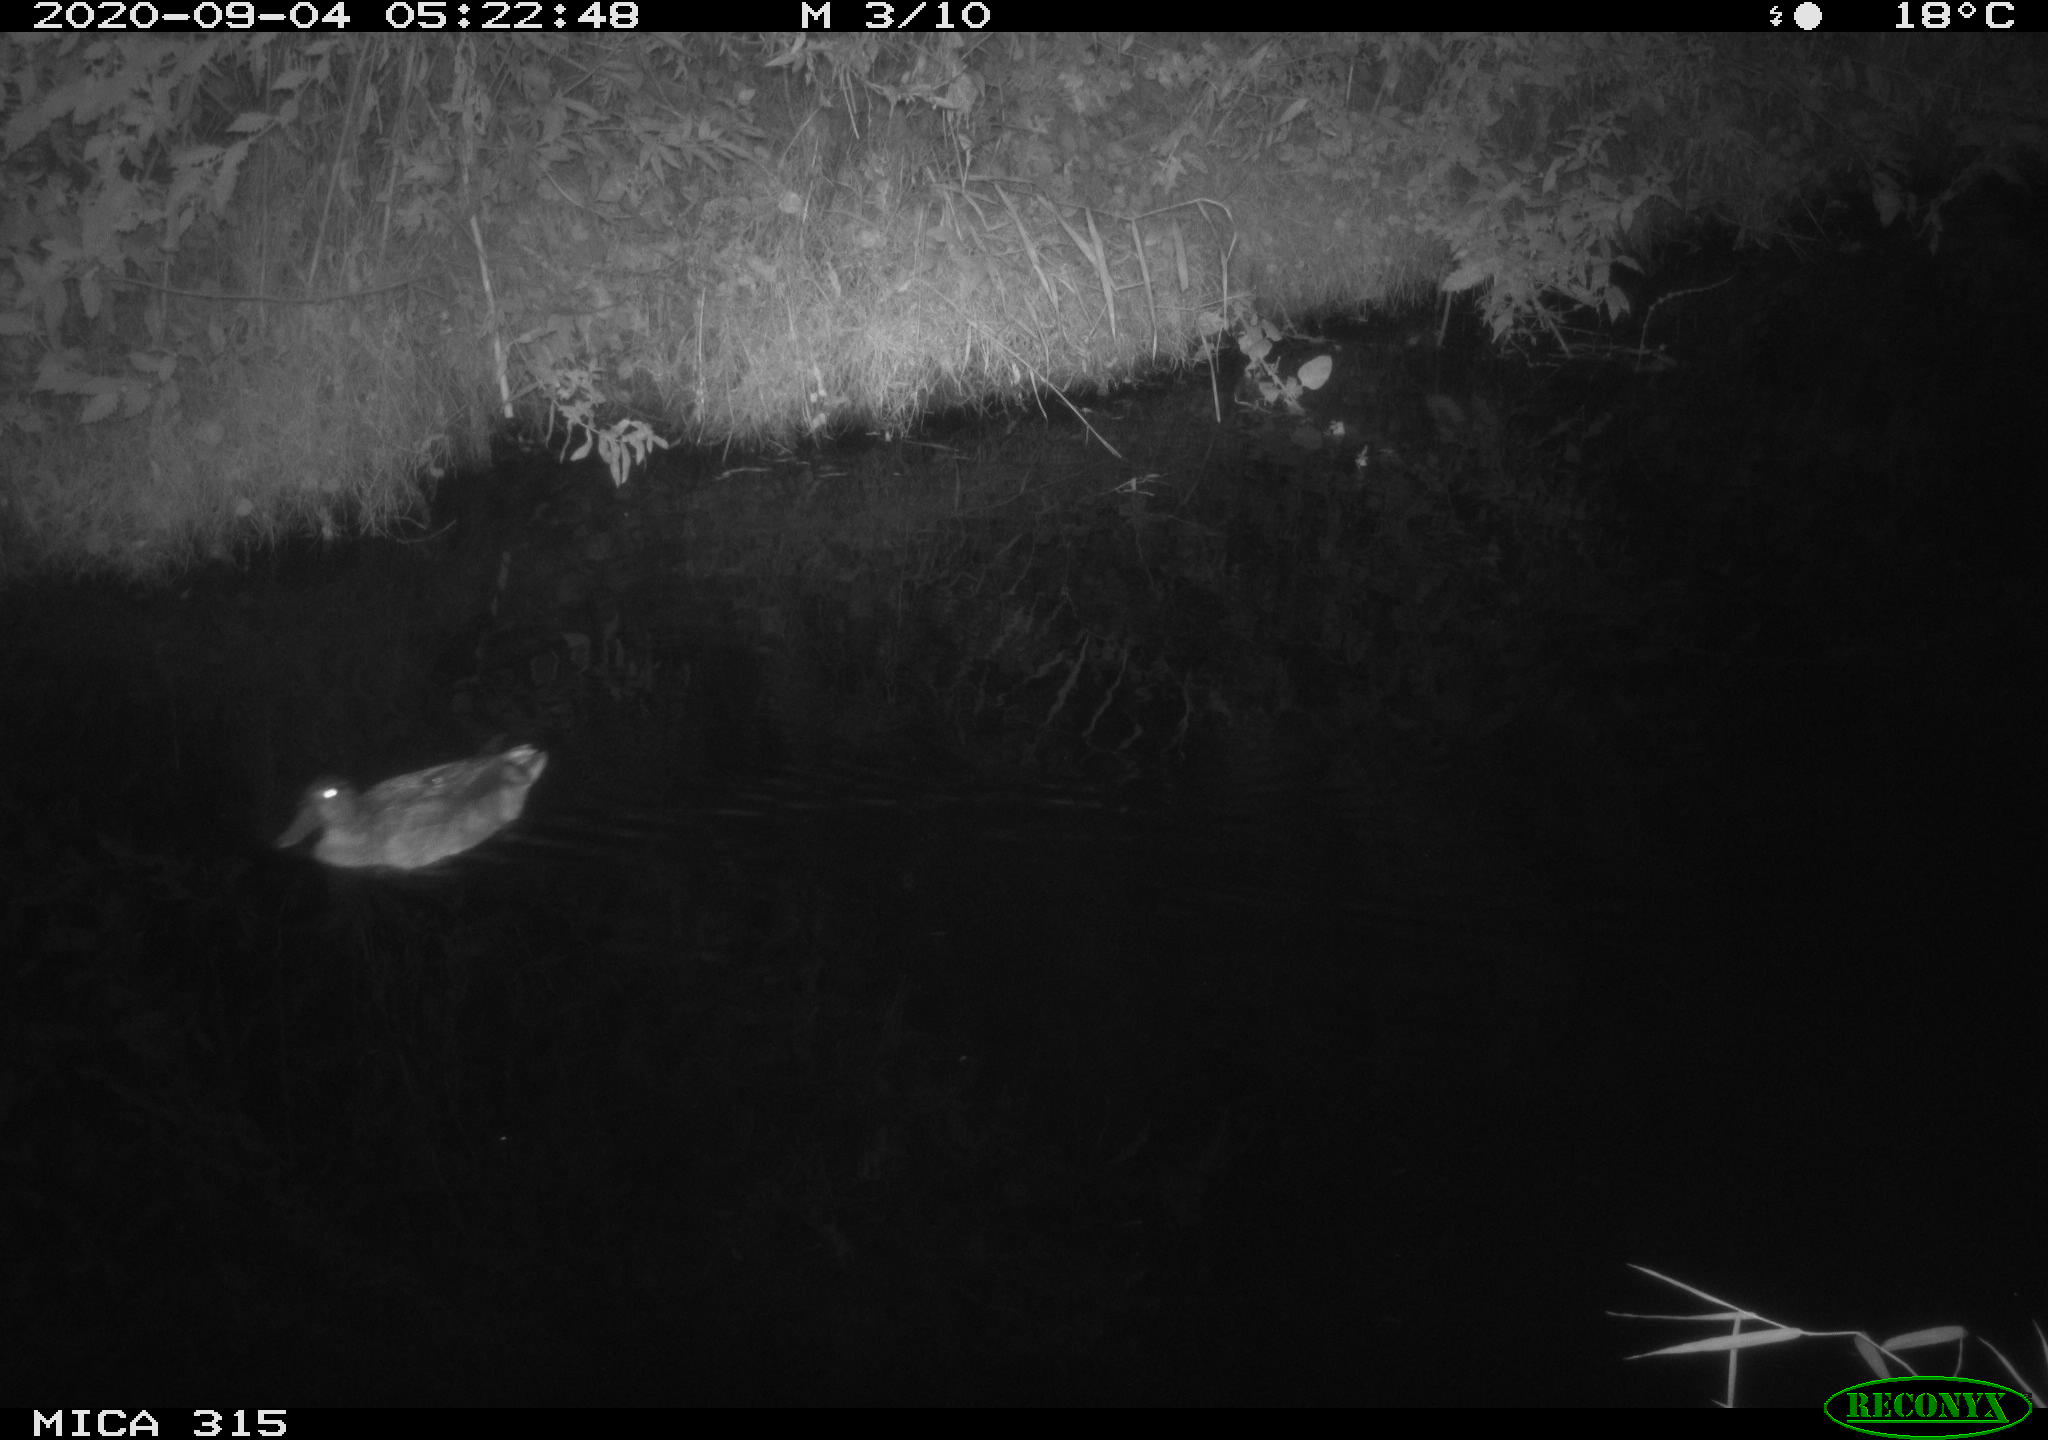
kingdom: Animalia
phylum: Chordata
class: Aves
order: Anseriformes
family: Anatidae
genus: Anas
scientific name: Anas platyrhynchos
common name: Mallard
